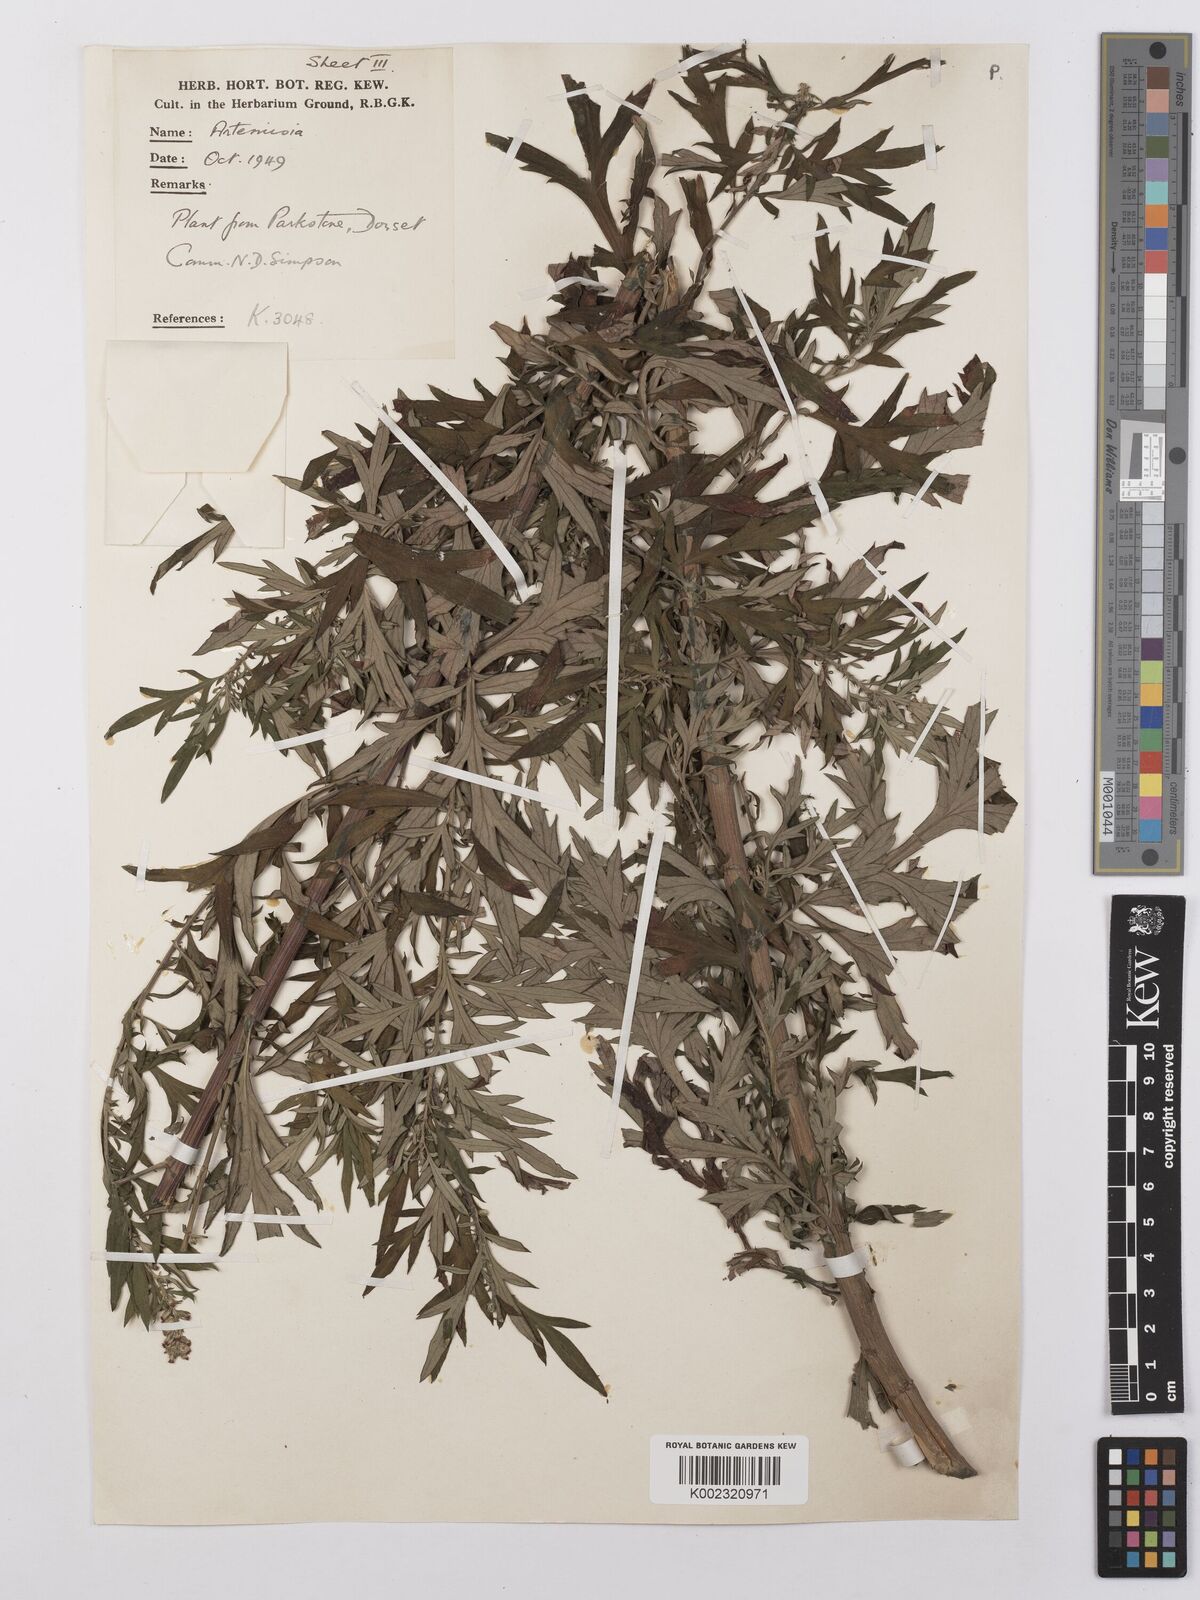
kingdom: Plantae
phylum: Tracheophyta
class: Magnoliopsida
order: Asterales
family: Asteraceae
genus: Artemisia
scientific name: Artemisia
